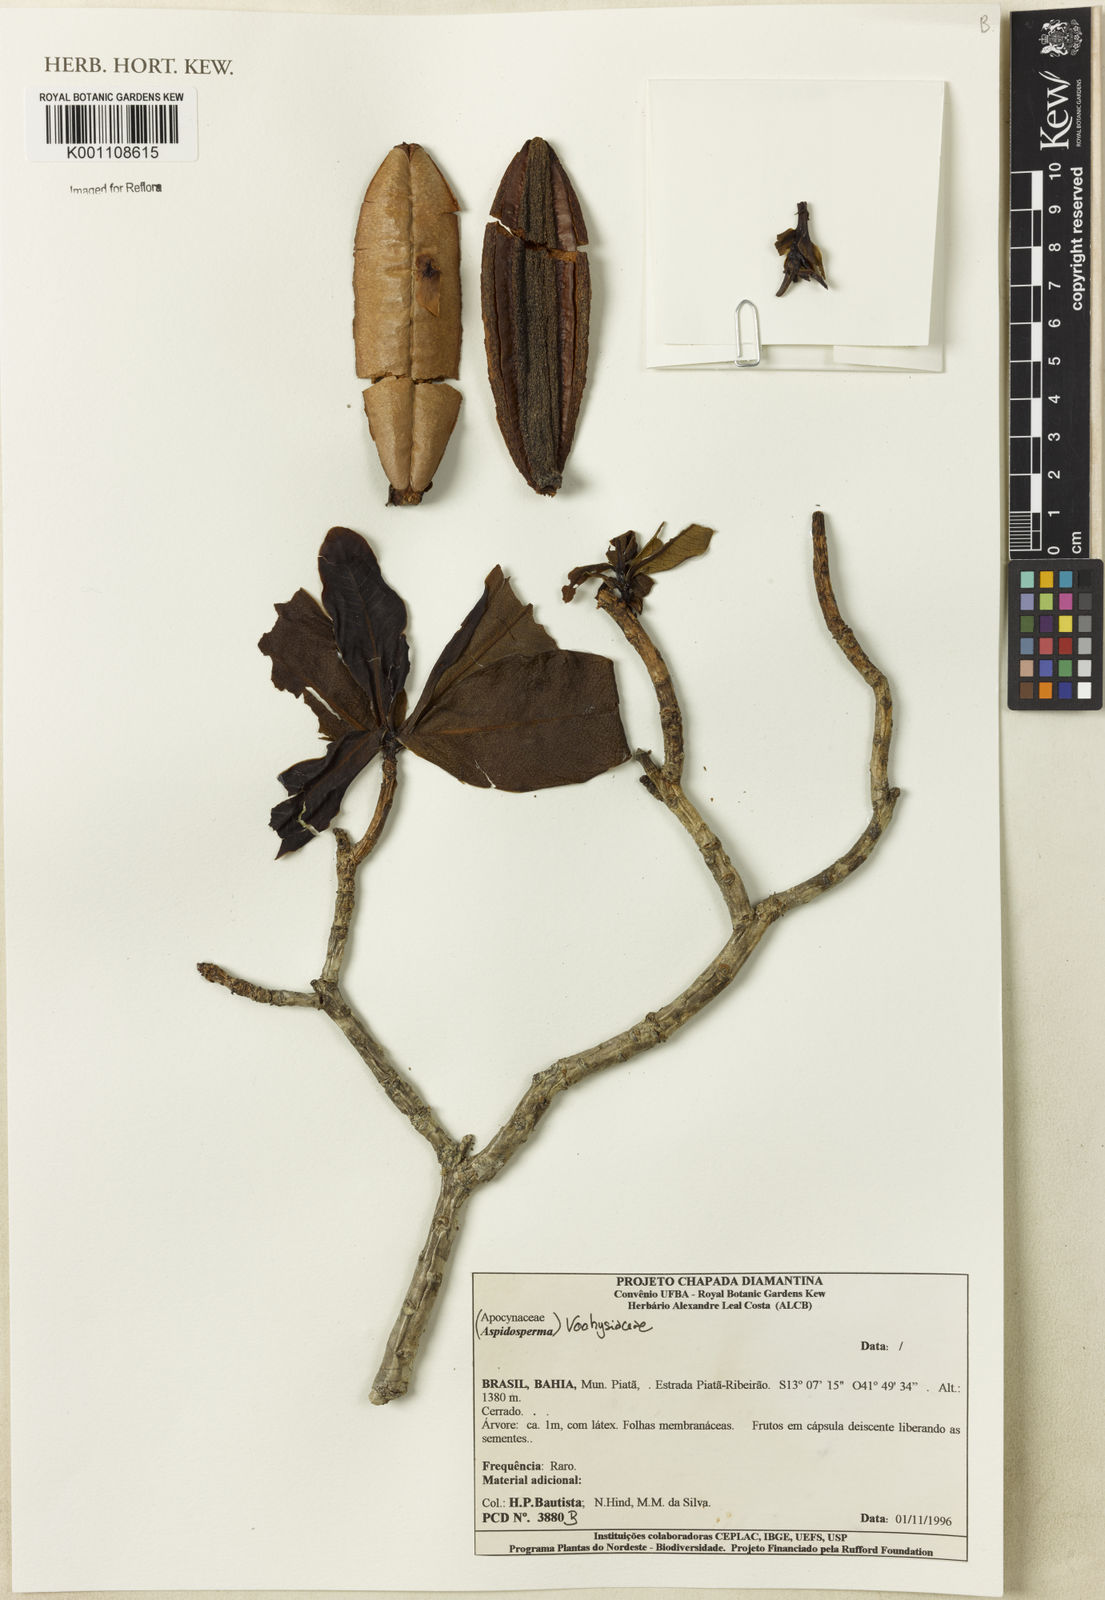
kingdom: Plantae
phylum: Tracheophyta
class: Magnoliopsida
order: Myrtales
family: Vochysiaceae
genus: Salvertia
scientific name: Salvertia
